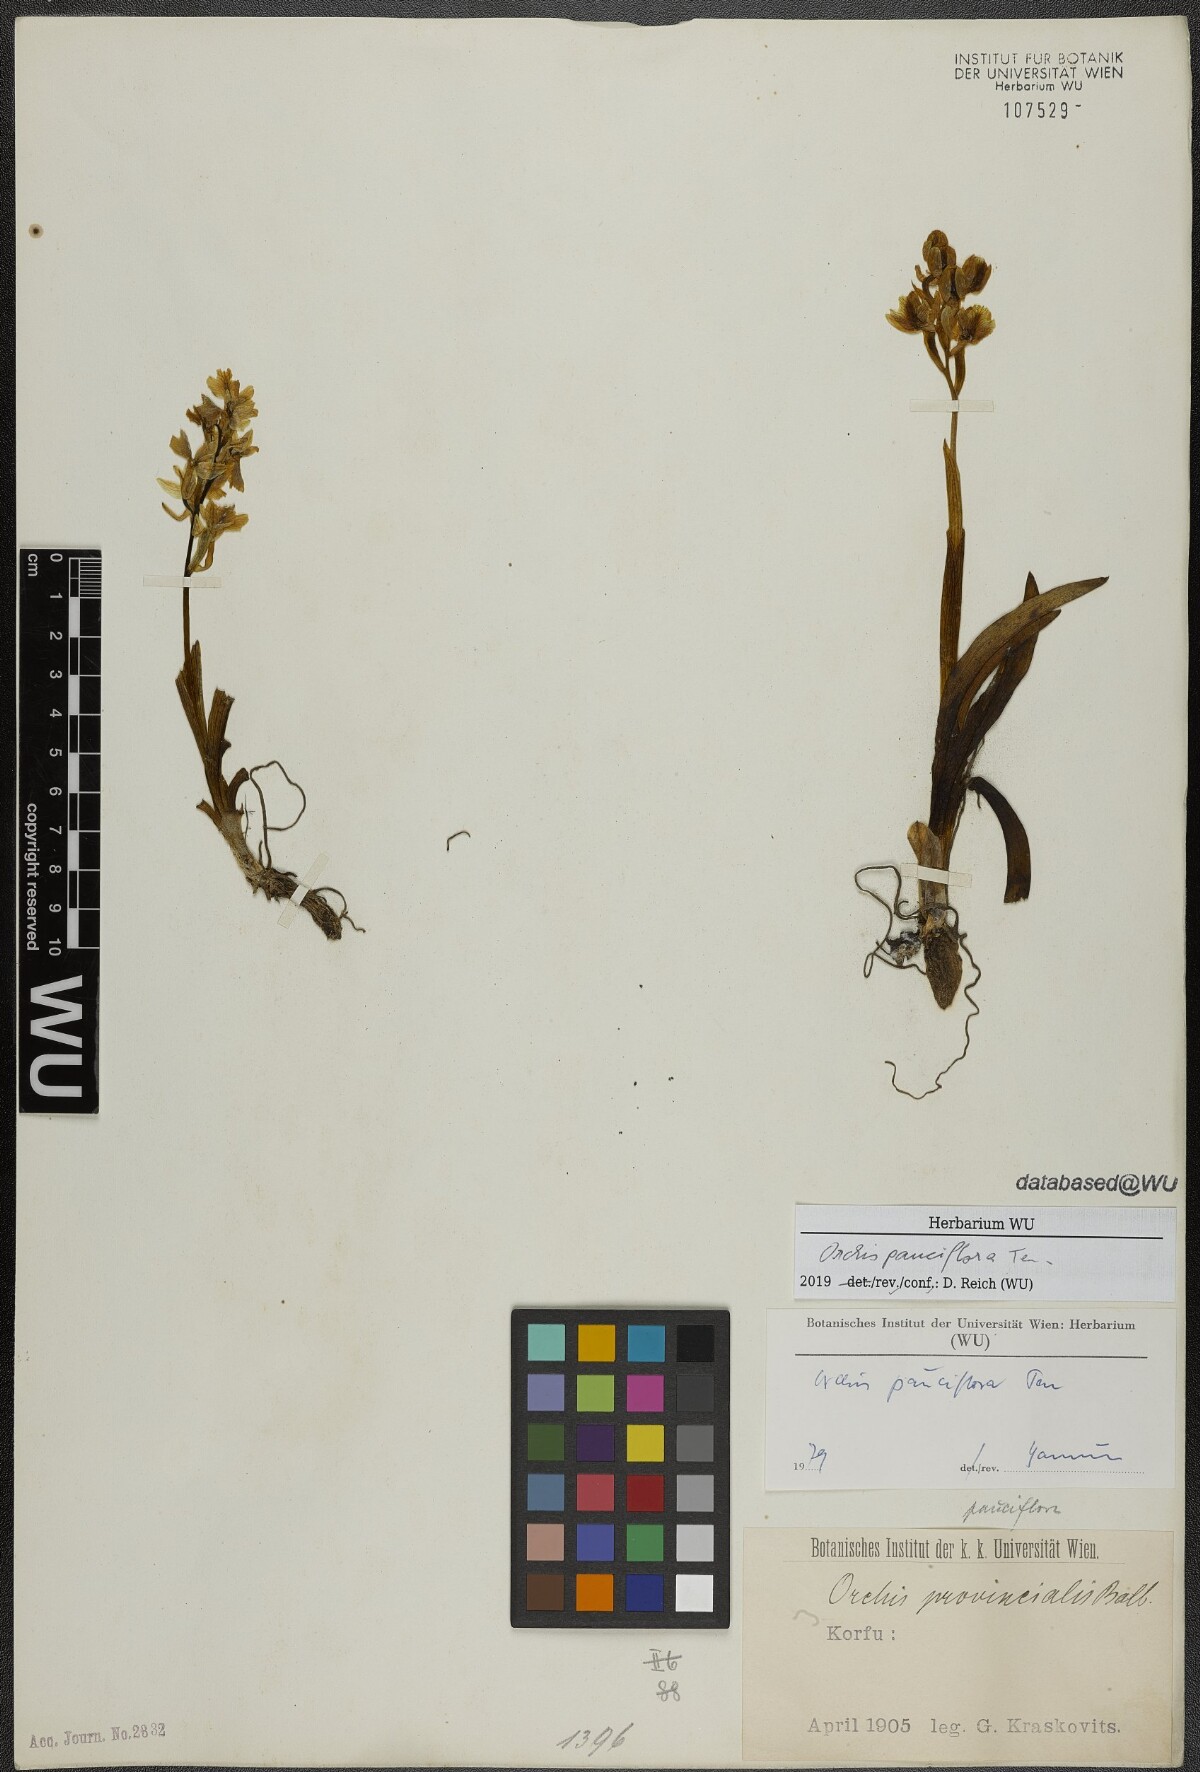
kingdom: Plantae
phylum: Tracheophyta
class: Liliopsida
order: Asparagales
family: Orchidaceae
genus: Orchis
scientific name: Orchis pauciflora
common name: Few-flowered orchid
